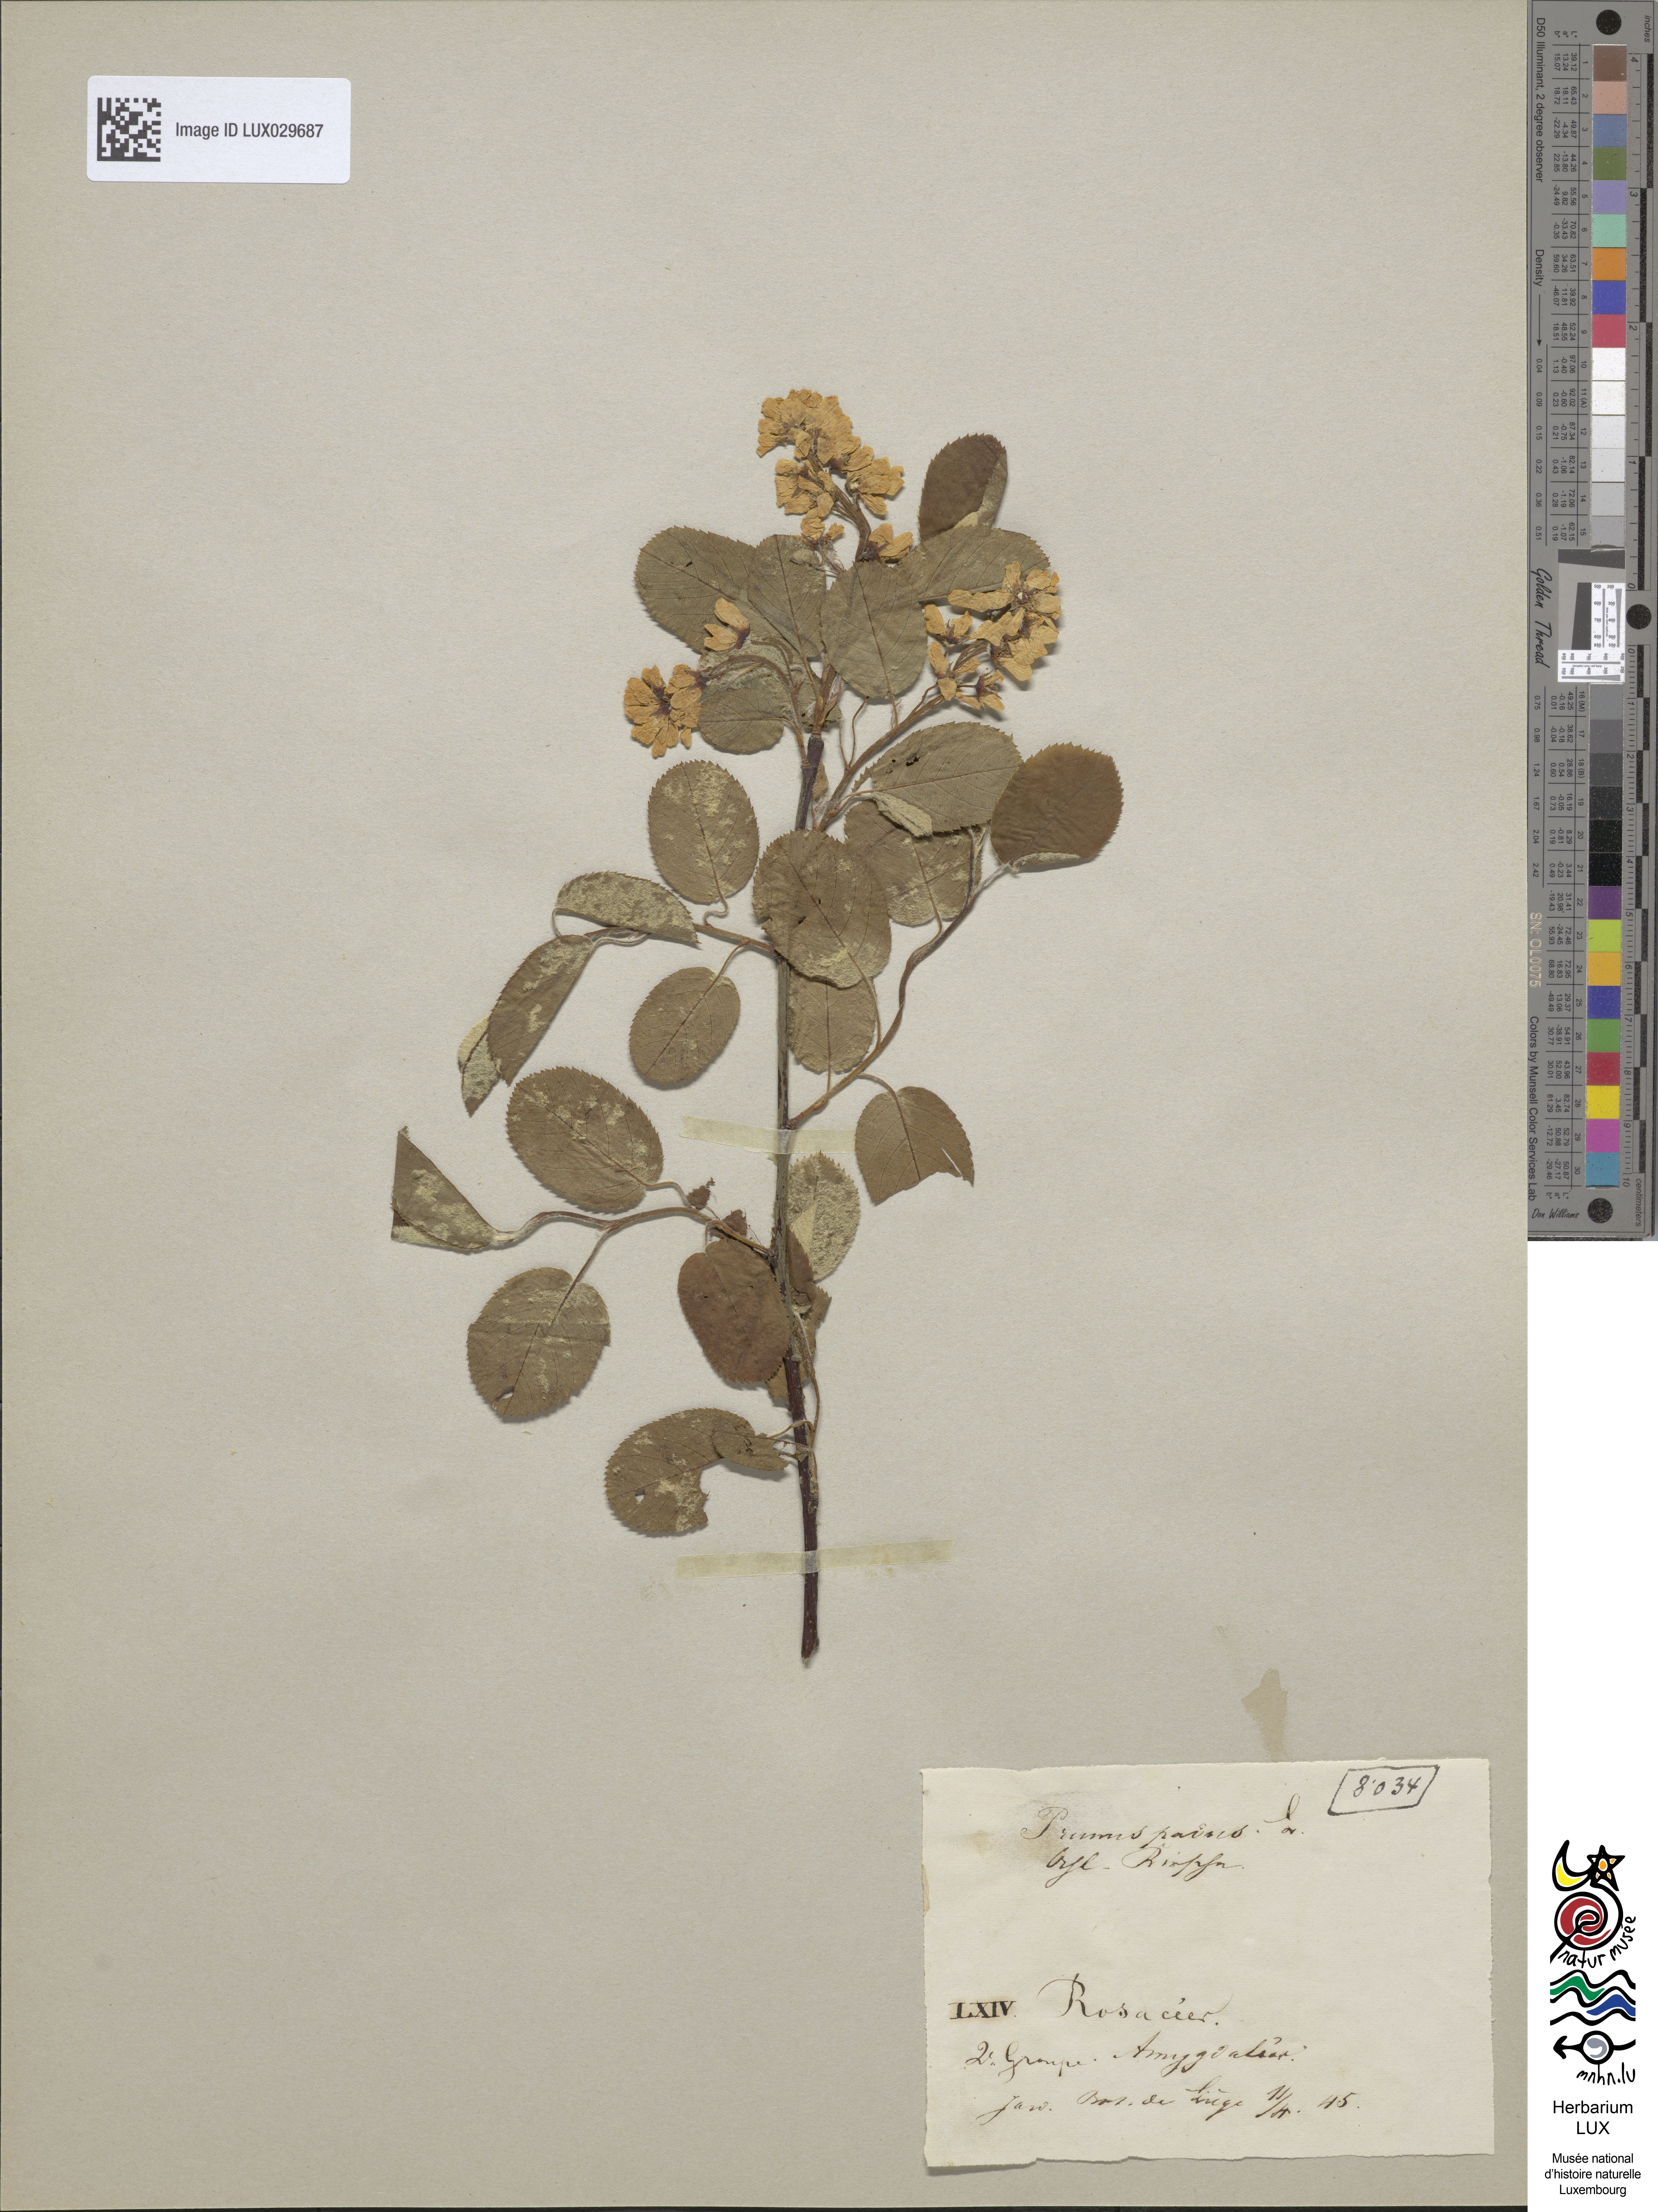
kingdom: Plantae
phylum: Tracheophyta
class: Magnoliopsida
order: Rosales
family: Rosaceae
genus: Prunus
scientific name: Prunus padus
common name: Bird cherry
